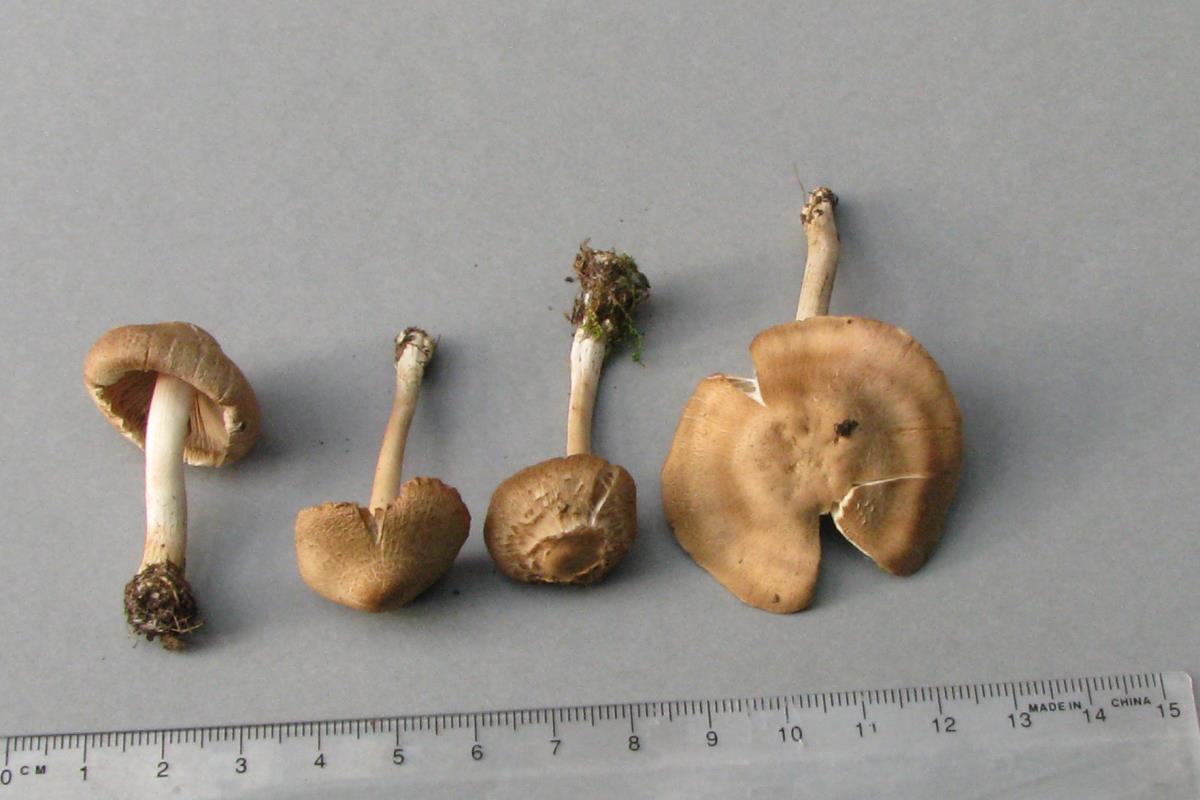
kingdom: Fungi
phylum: Basidiomycota
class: Agaricomycetes
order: Agaricales
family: Inocybaceae
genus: Inocybe
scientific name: Inocybe sindonia
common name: Beige fibrecap
